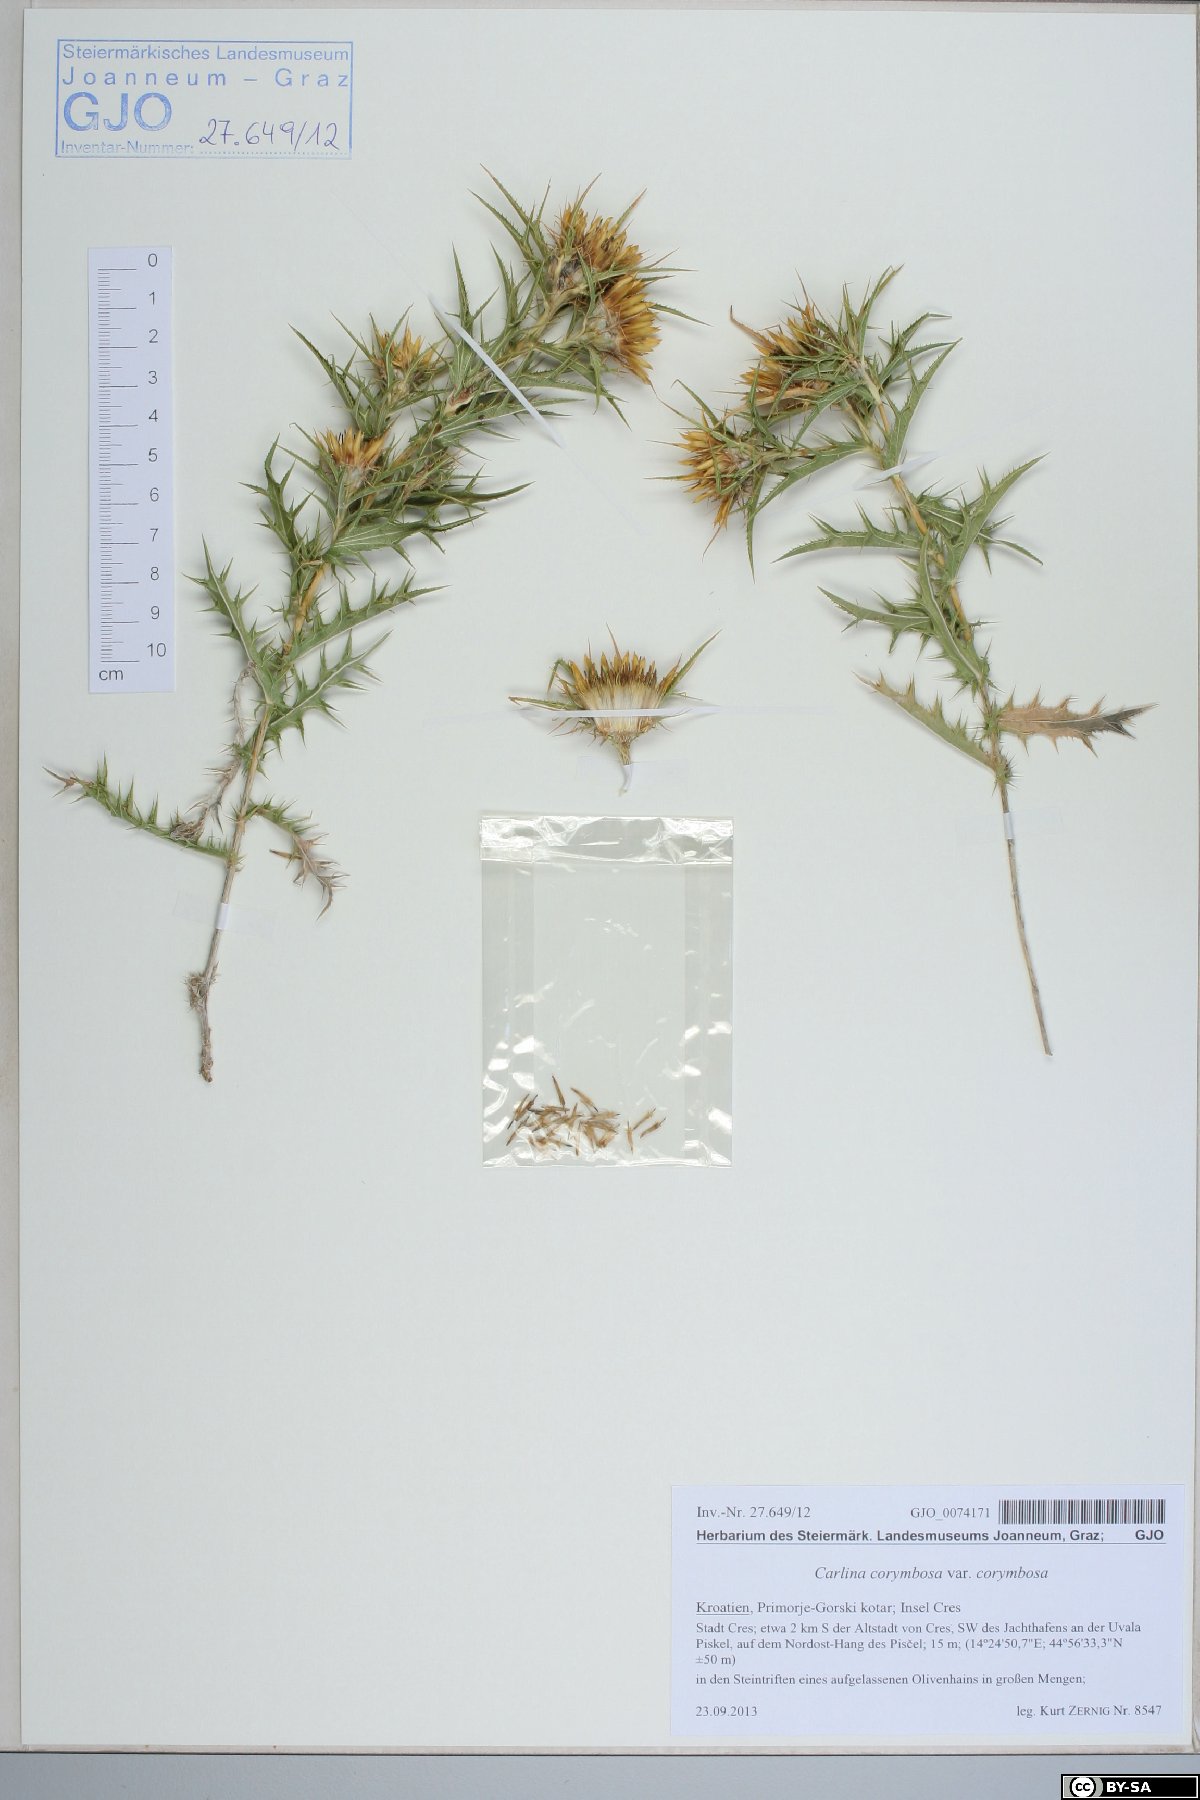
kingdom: Plantae
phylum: Tracheophyta
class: Magnoliopsida
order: Asterales
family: Asteraceae
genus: Carlina
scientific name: Carlina corymbosa
